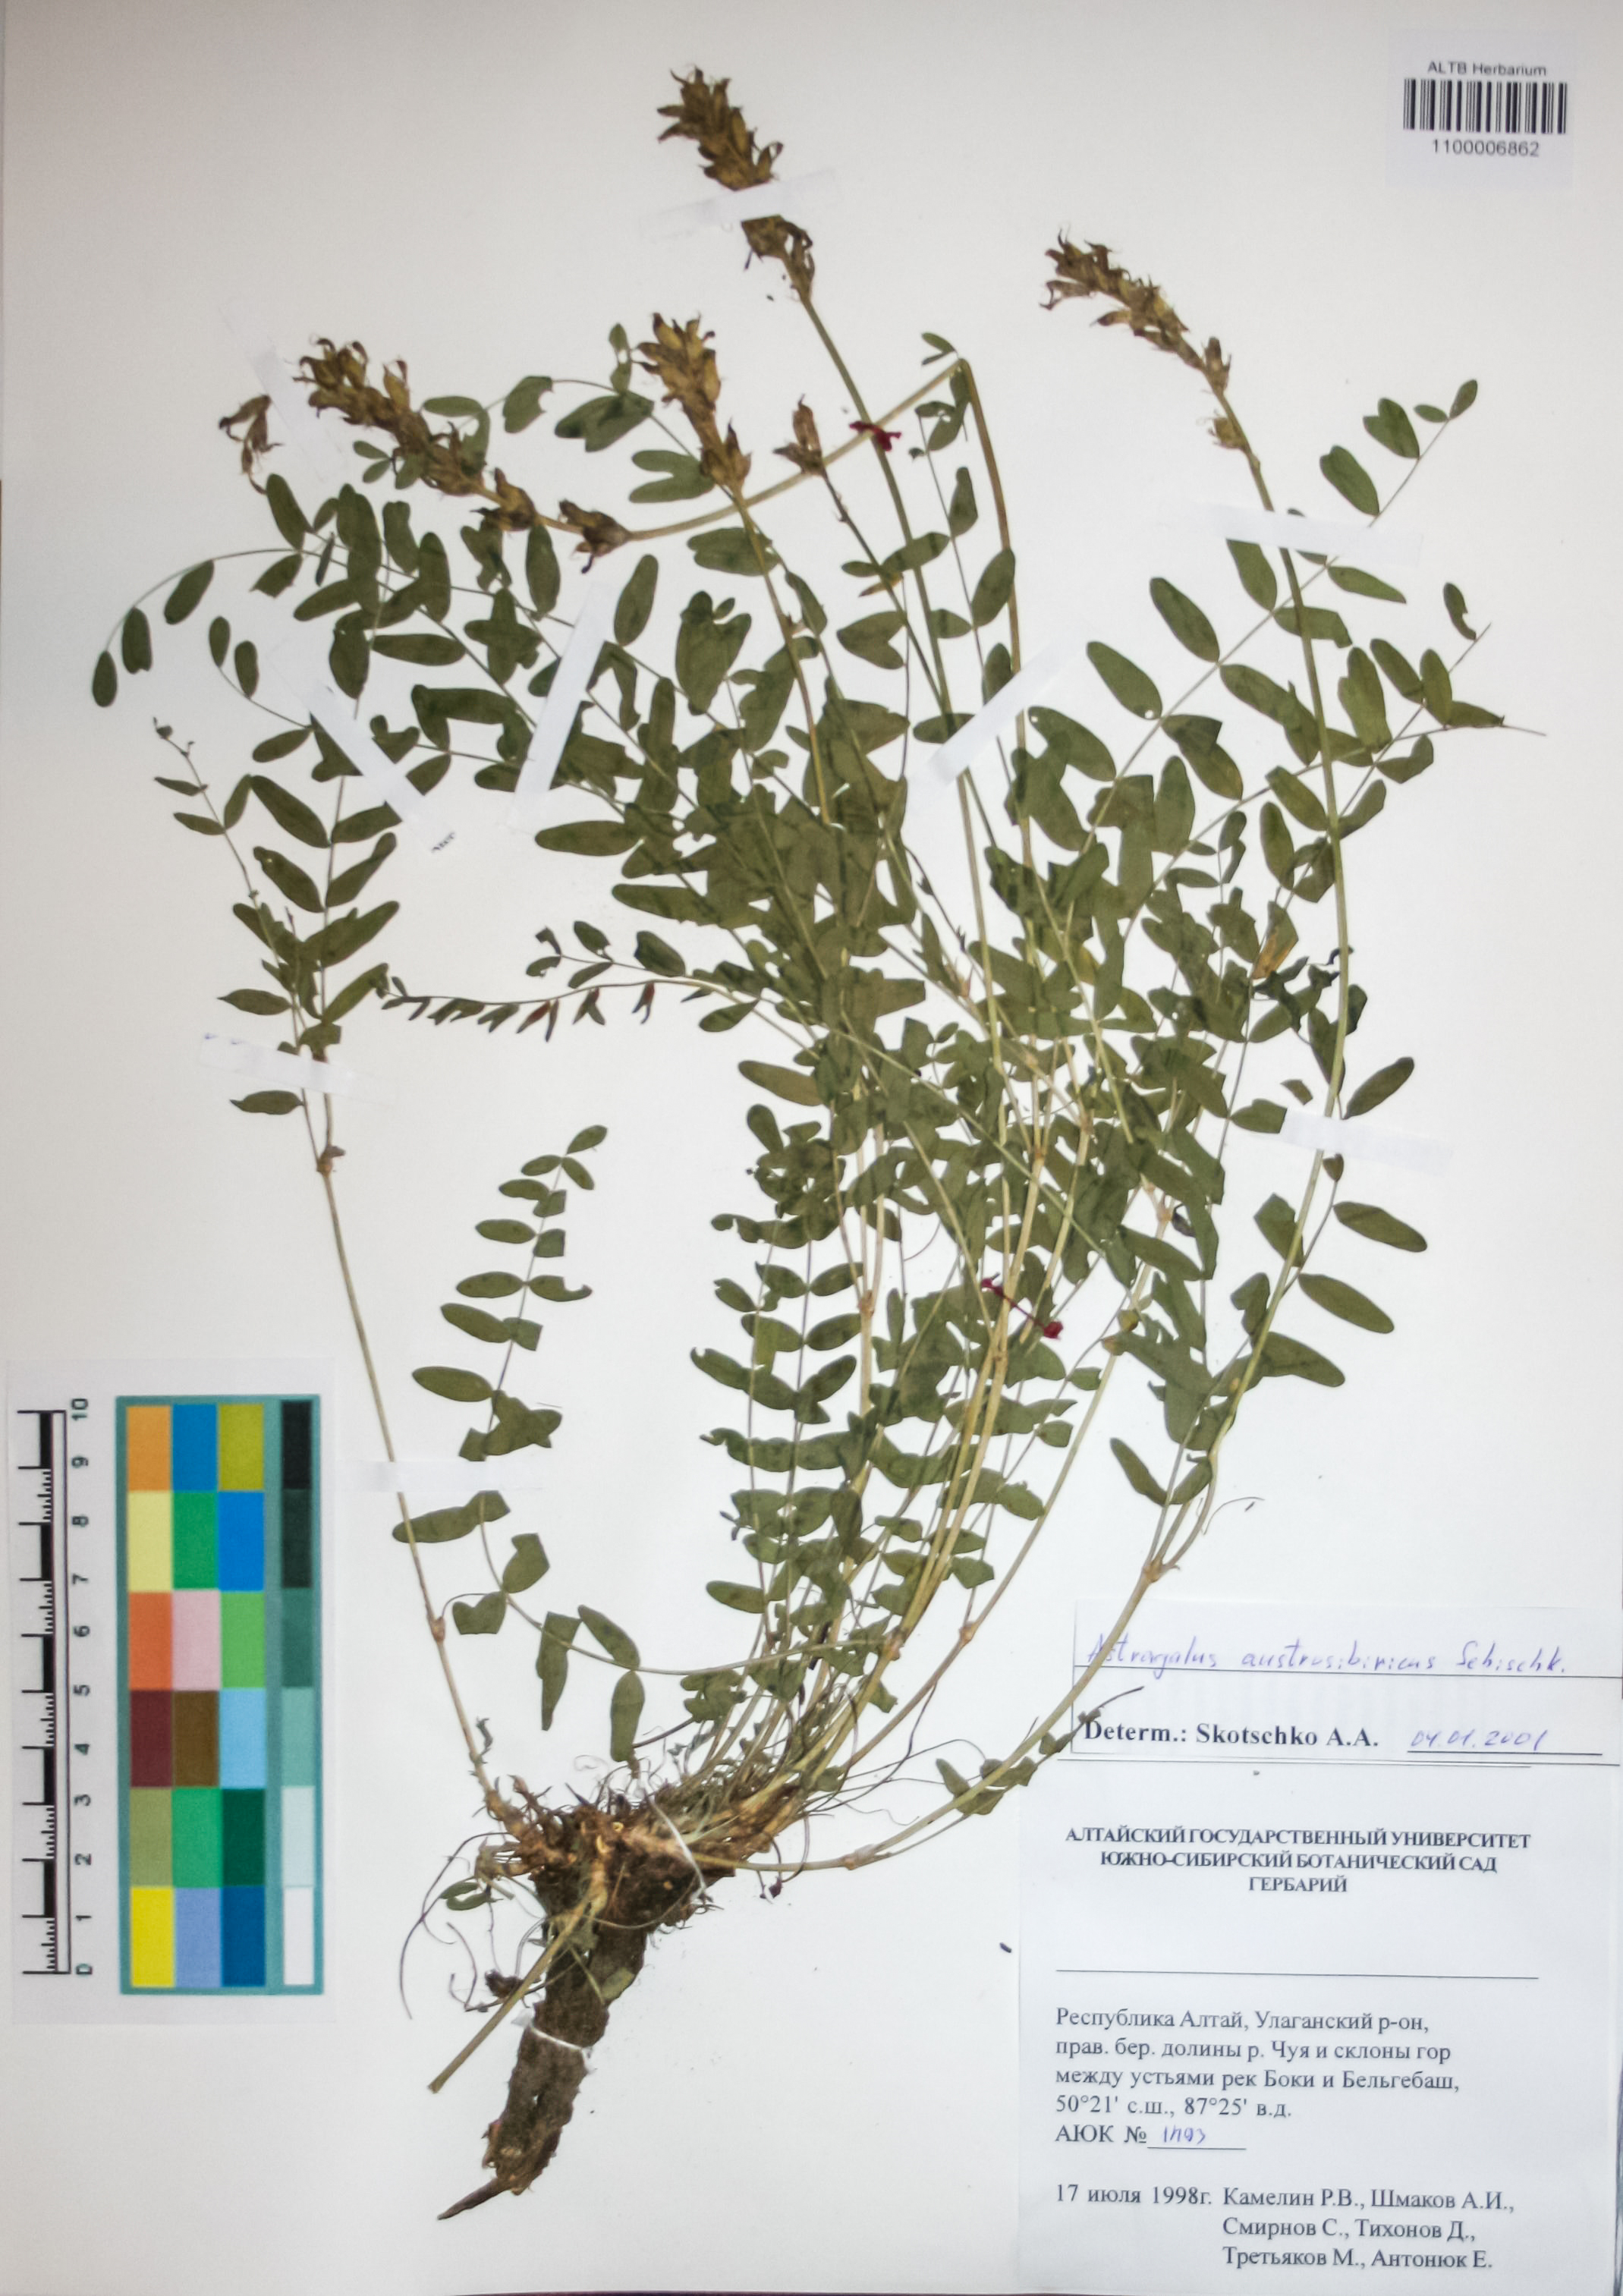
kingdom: Plantae
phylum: Tracheophyta
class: Magnoliopsida
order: Fabales
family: Fabaceae
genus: Astragalus
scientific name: Astragalus laxmannii
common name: Laxmann's milk-vetch
